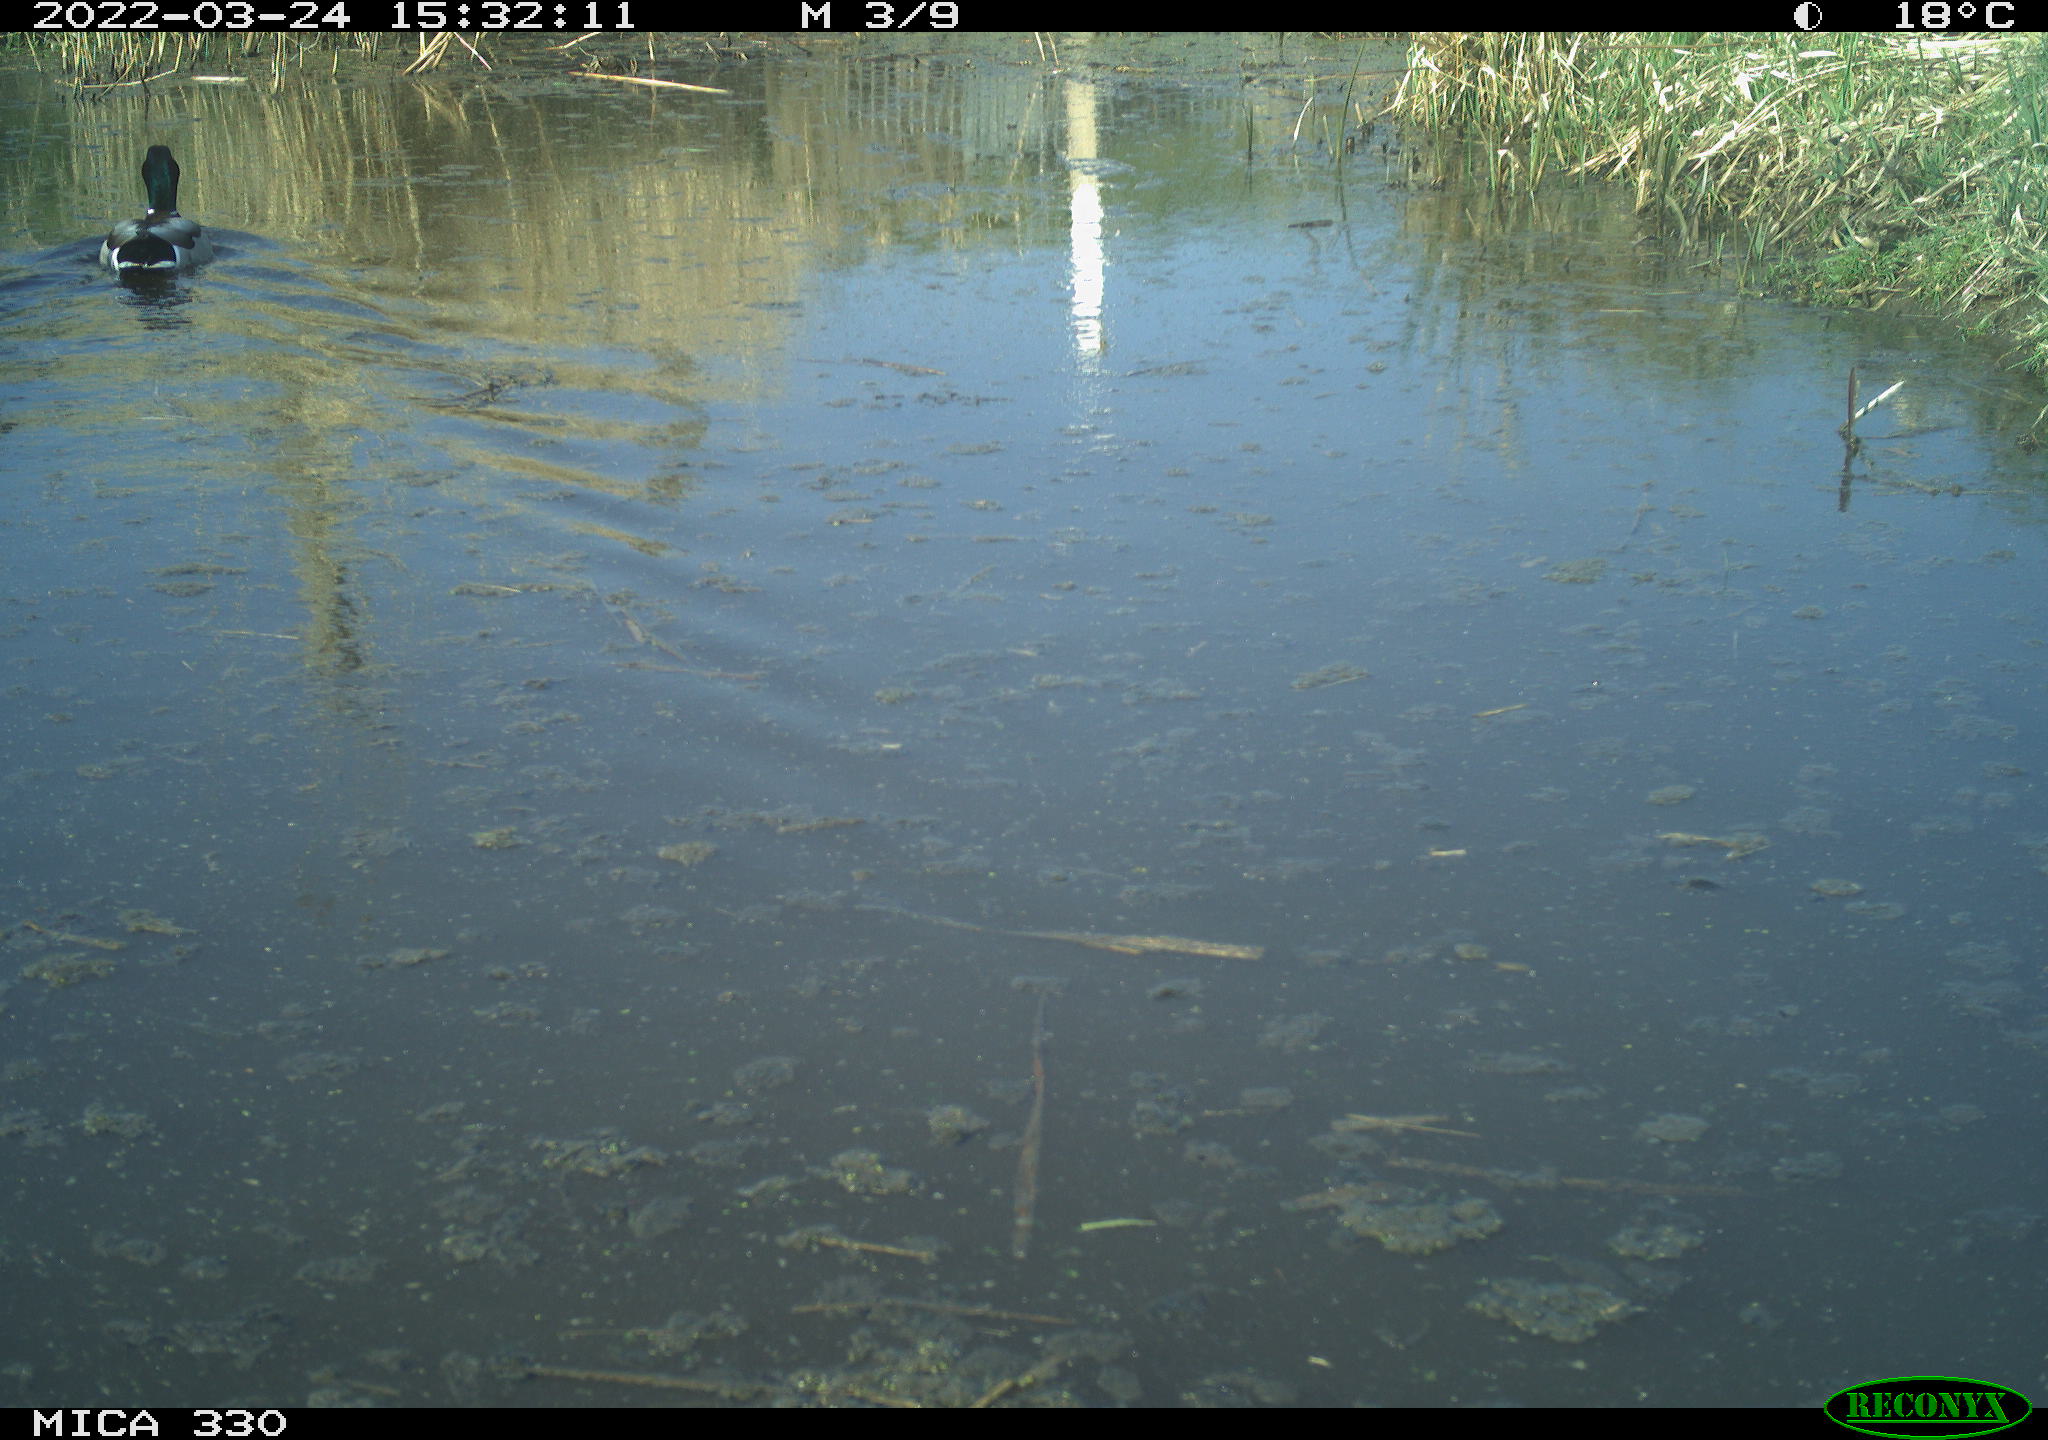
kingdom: Animalia
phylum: Chordata
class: Aves
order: Anseriformes
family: Anatidae
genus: Anas
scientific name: Anas platyrhynchos
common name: Mallard
